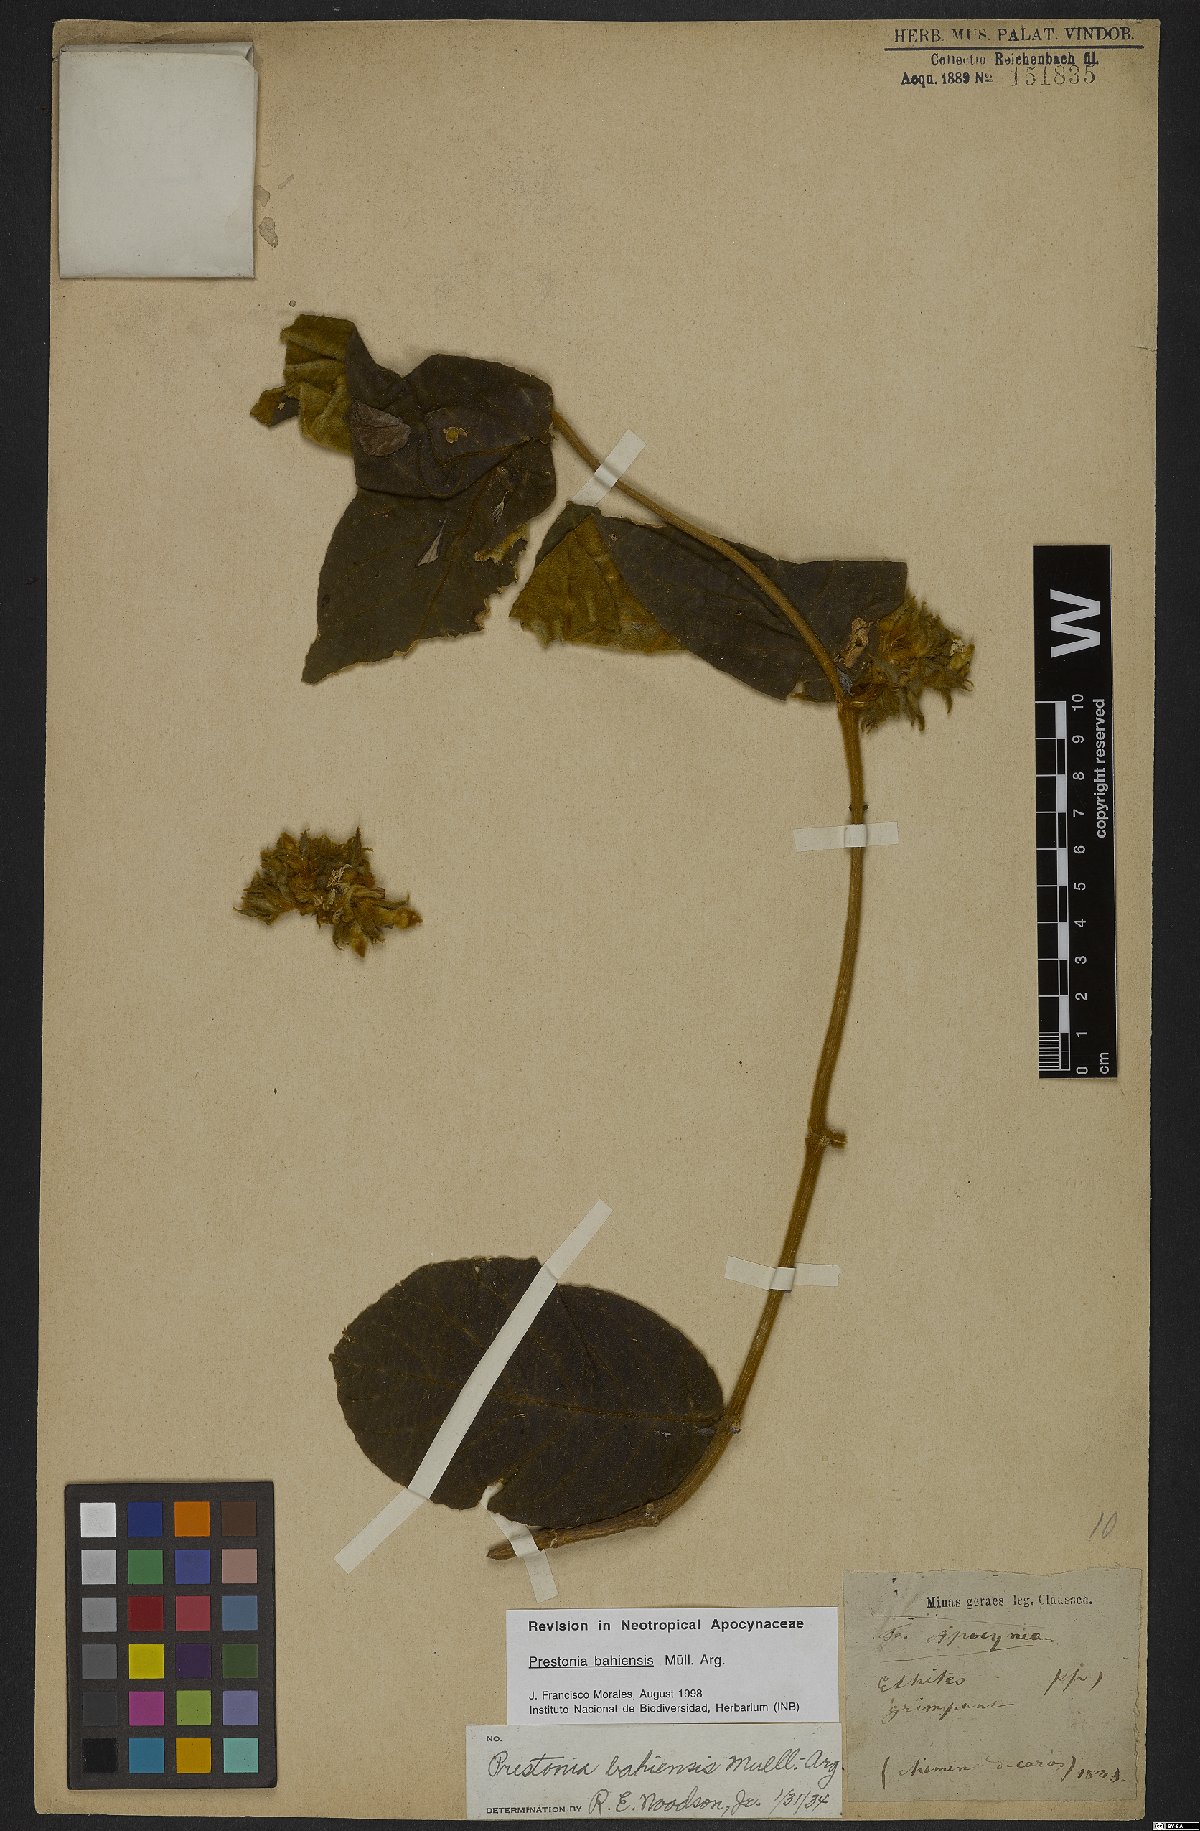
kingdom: Plantae
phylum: Tracheophyta
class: Magnoliopsida
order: Gentianales
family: Apocynaceae
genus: Prestonia
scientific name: Prestonia bahiensis
